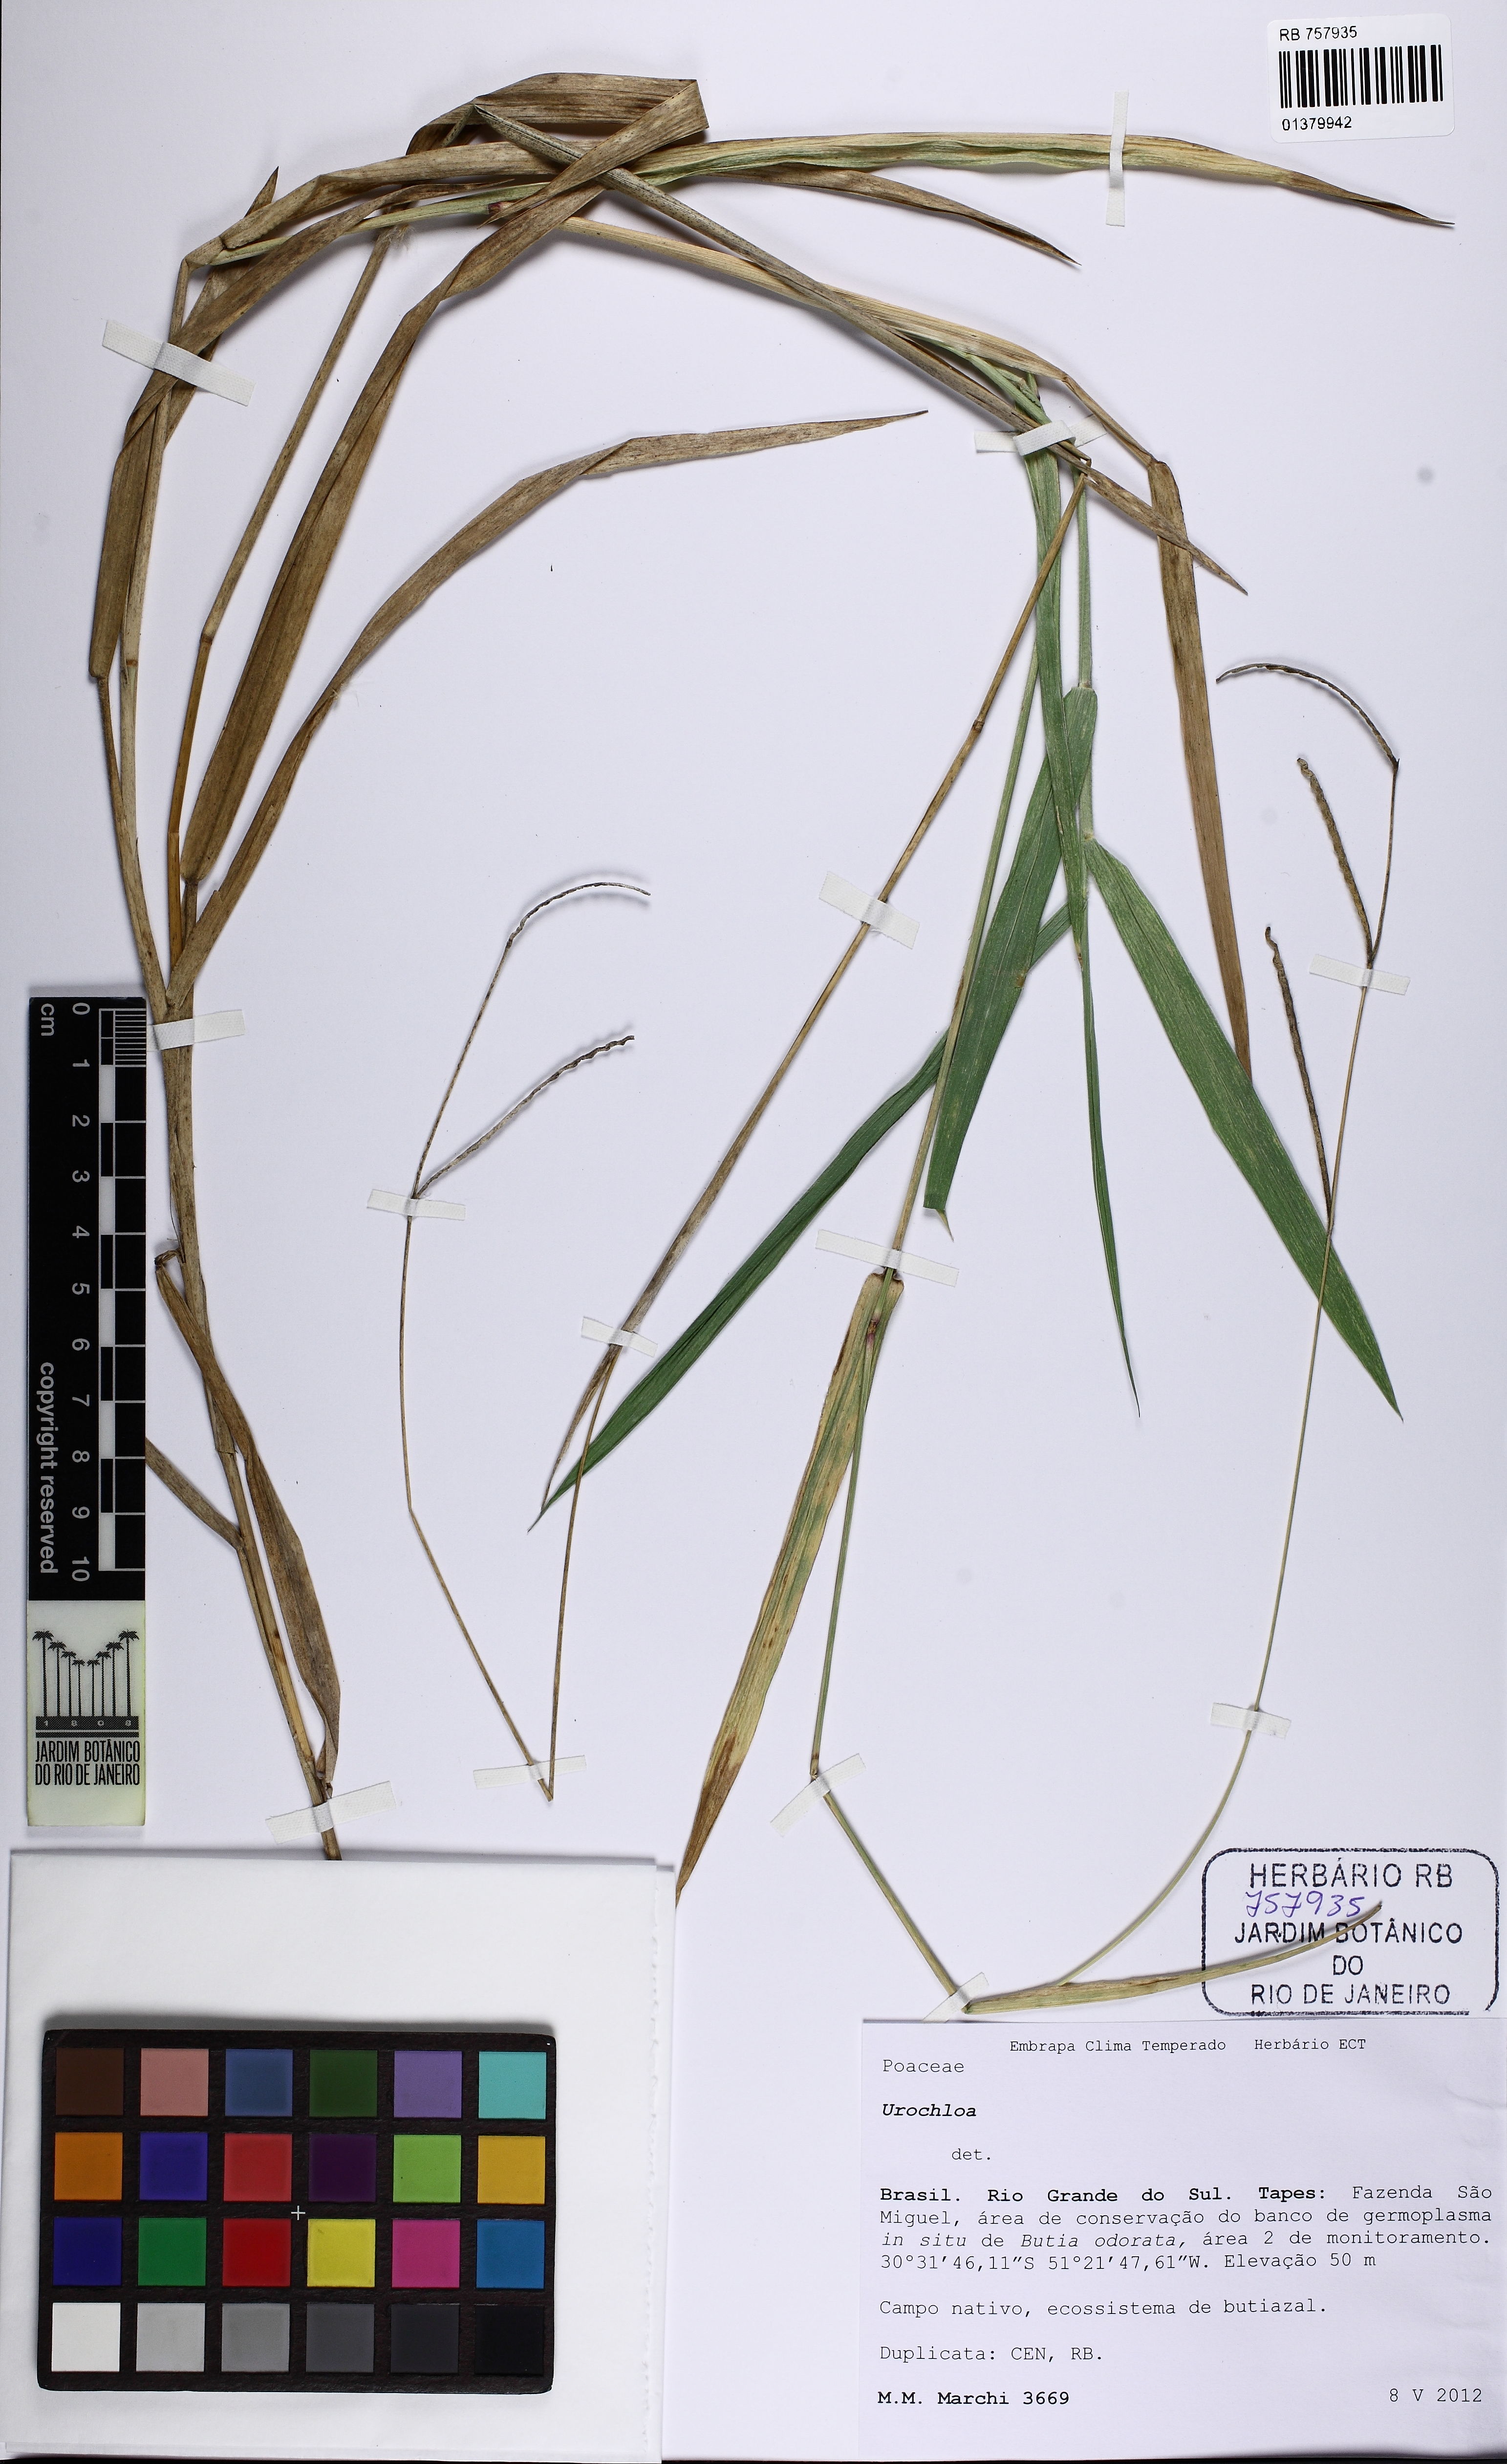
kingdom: Plantae
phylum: Tracheophyta
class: Liliopsida
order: Poales
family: Poaceae
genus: Urochloa
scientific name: Urochloa
